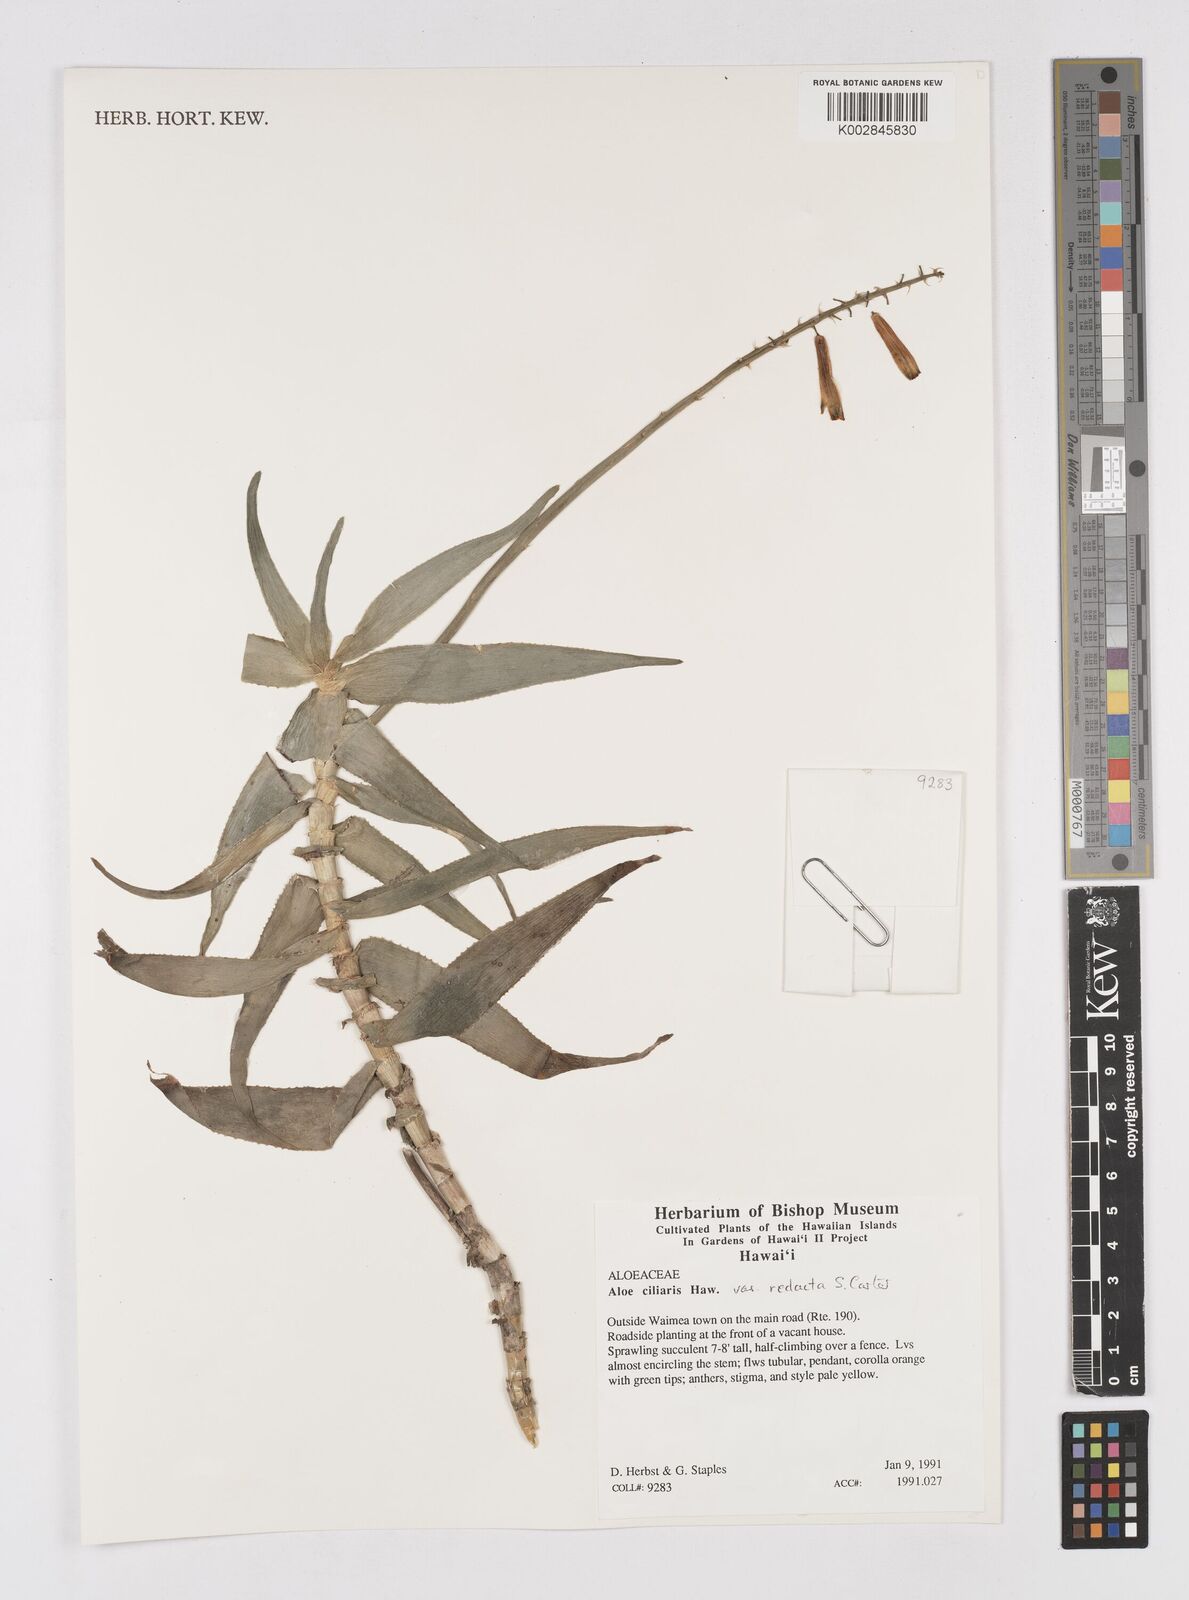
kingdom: Plantae
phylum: Tracheophyta
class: Liliopsida
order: Asparagales
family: Asphodelaceae
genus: Aloiampelos
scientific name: Aloiampelos ciliaris
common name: Climbing aloe
